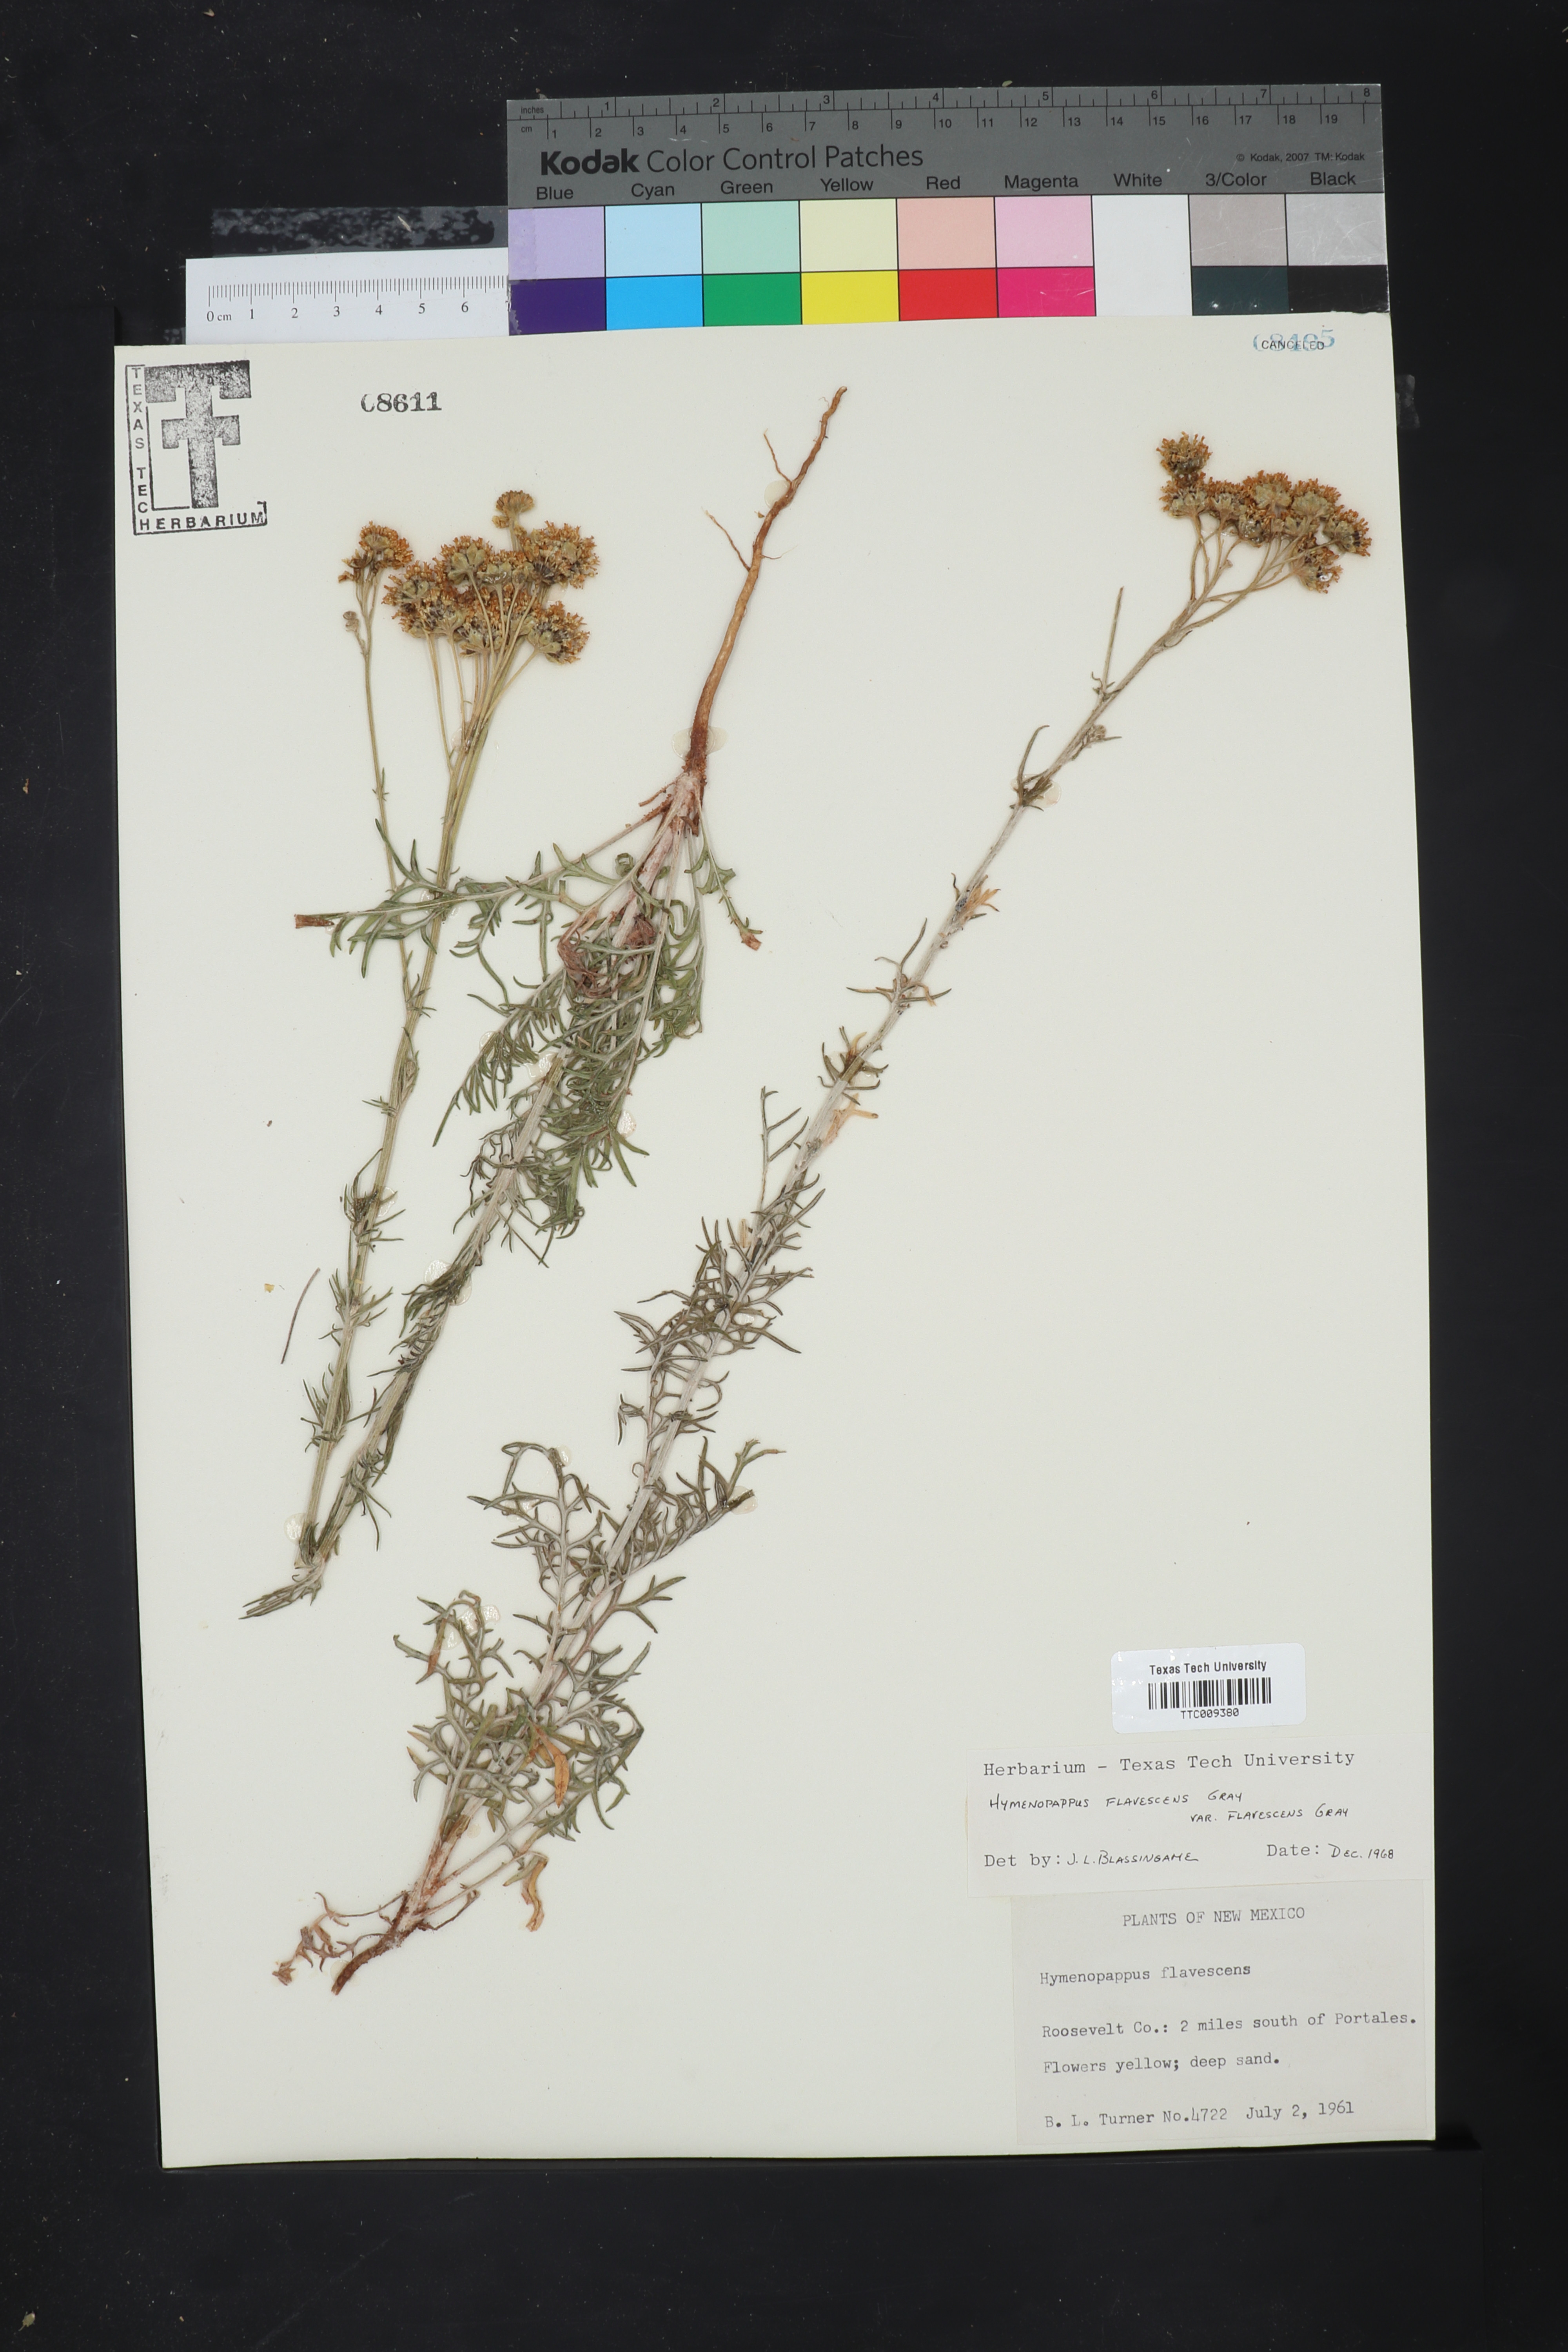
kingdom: Plantae
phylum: Tracheophyta
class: Magnoliopsida
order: Asterales
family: Asteraceae
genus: Hymenopappus
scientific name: Hymenopappus flavescens
